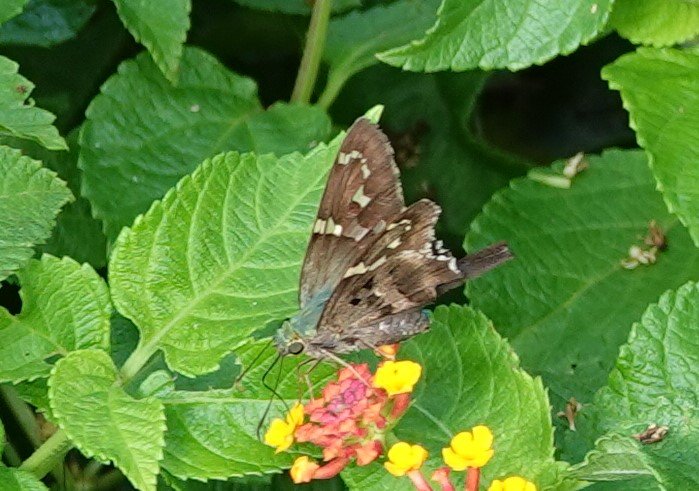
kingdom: Animalia
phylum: Arthropoda
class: Insecta
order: Lepidoptera
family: Hesperiidae
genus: Urbanus
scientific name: Urbanus proteus
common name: Long-tailed Skipper
